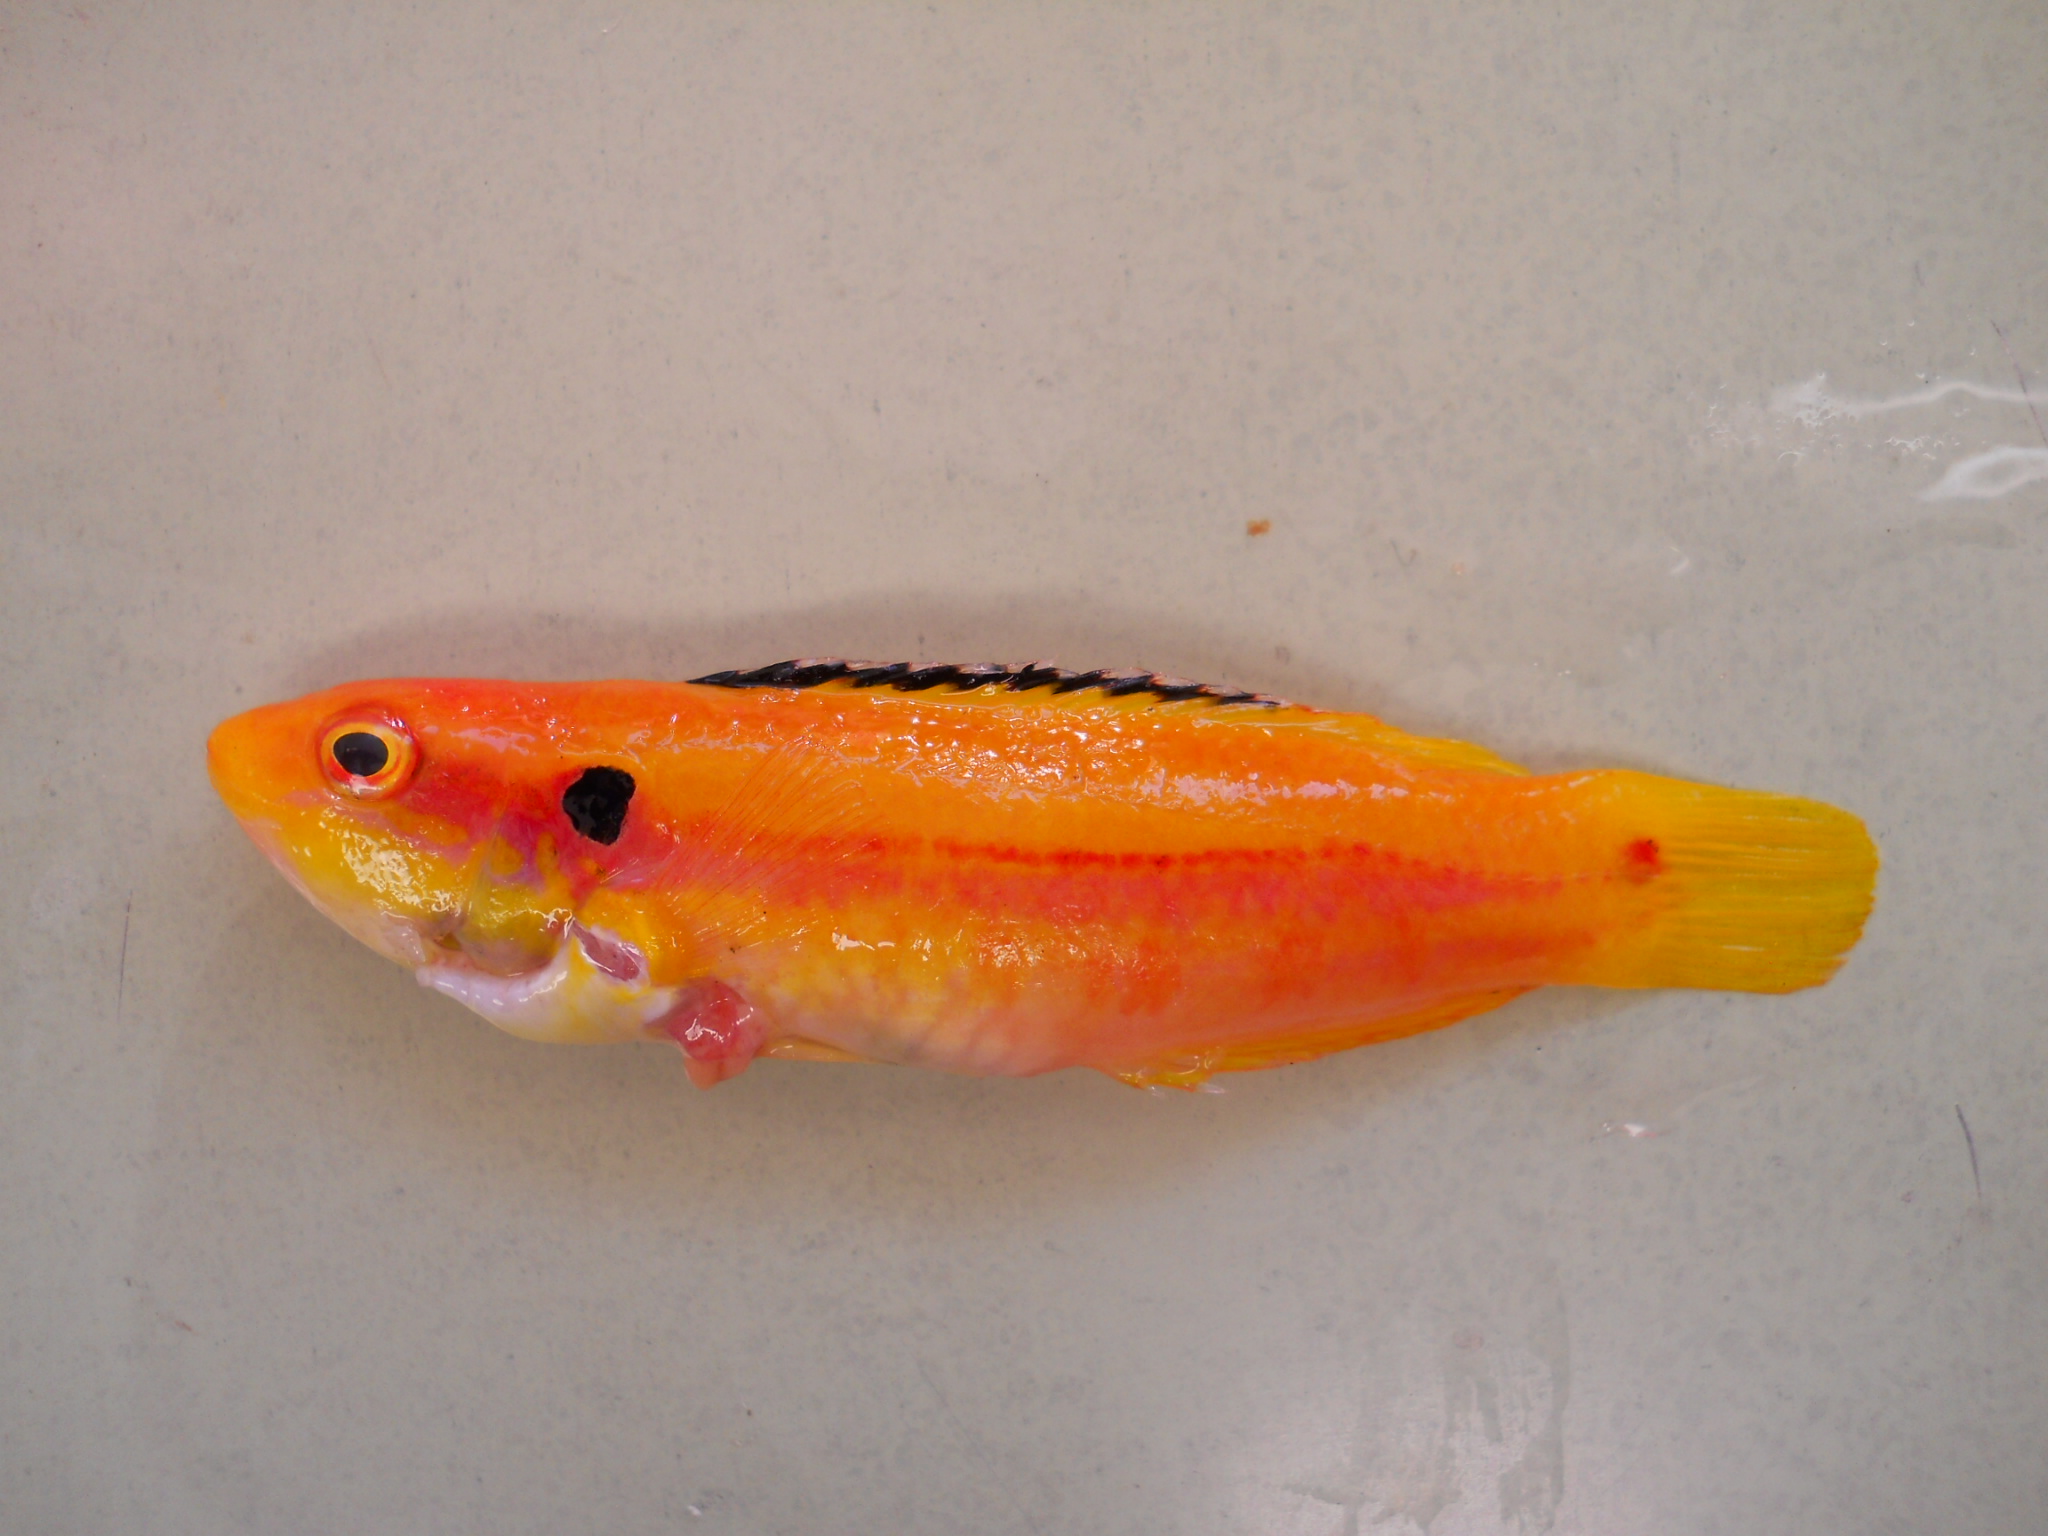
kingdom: Animalia
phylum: Chordata
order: Perciformes
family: Labridae
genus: Bodianus
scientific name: Bodianus bimaculatus
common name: Two-spot slender hogfish
